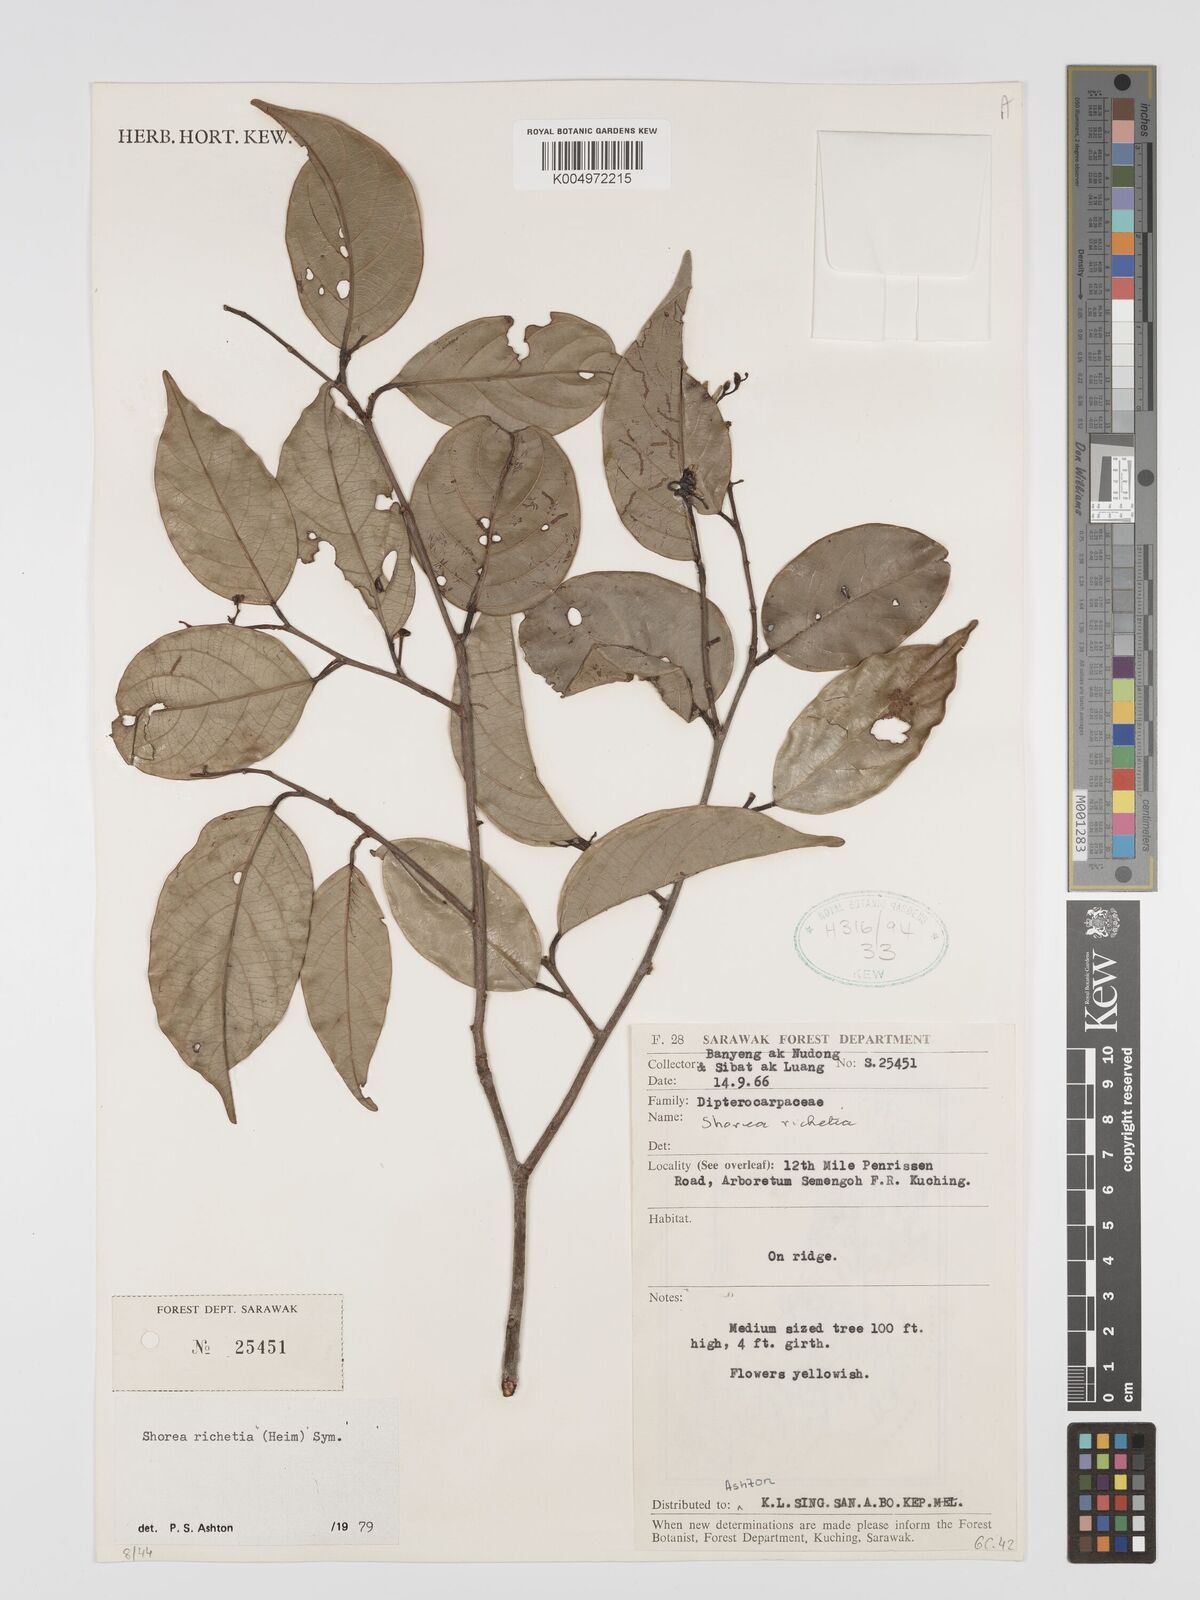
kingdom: Plantae
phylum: Tracheophyta
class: Magnoliopsida
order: Malvales
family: Dipterocarpaceae
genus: Shorea
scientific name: Shorea richetia
